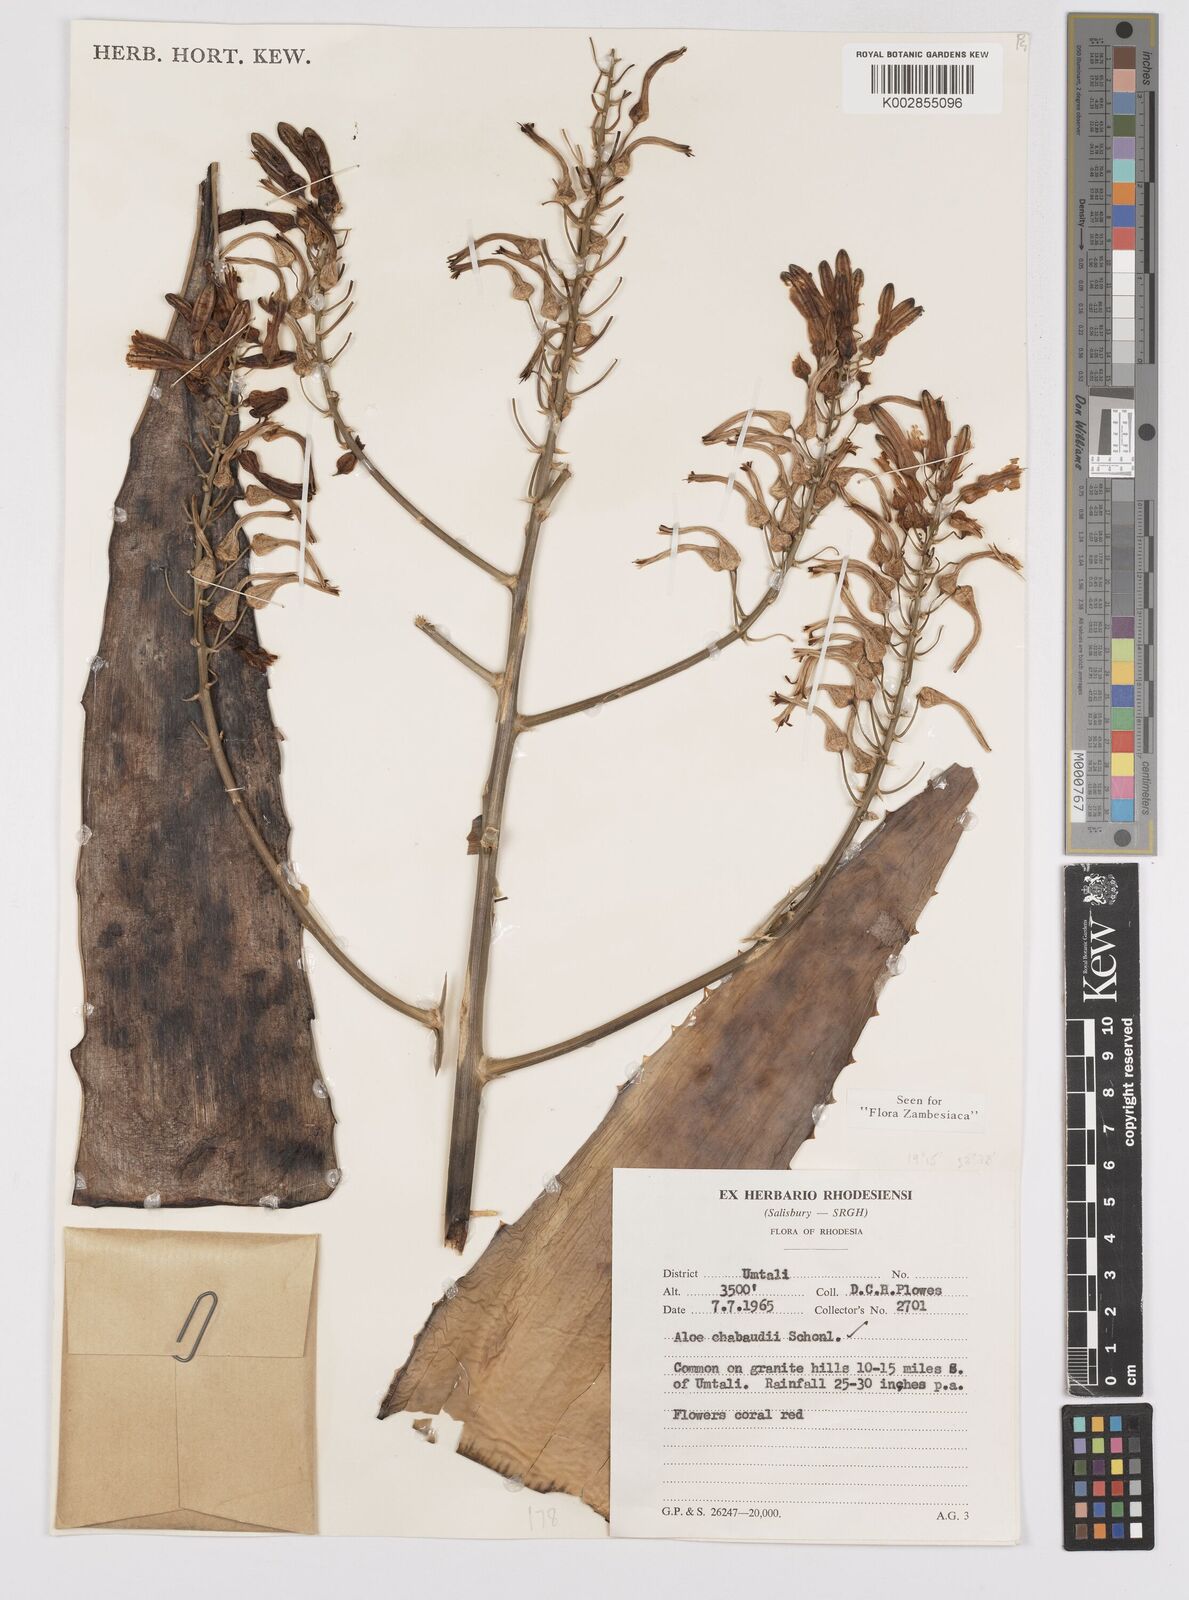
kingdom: Plantae
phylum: Tracheophyta
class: Liliopsida
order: Asparagales
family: Asphodelaceae
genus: Aloe
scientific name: Aloe chabaudii
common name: Chabaud's aloe
